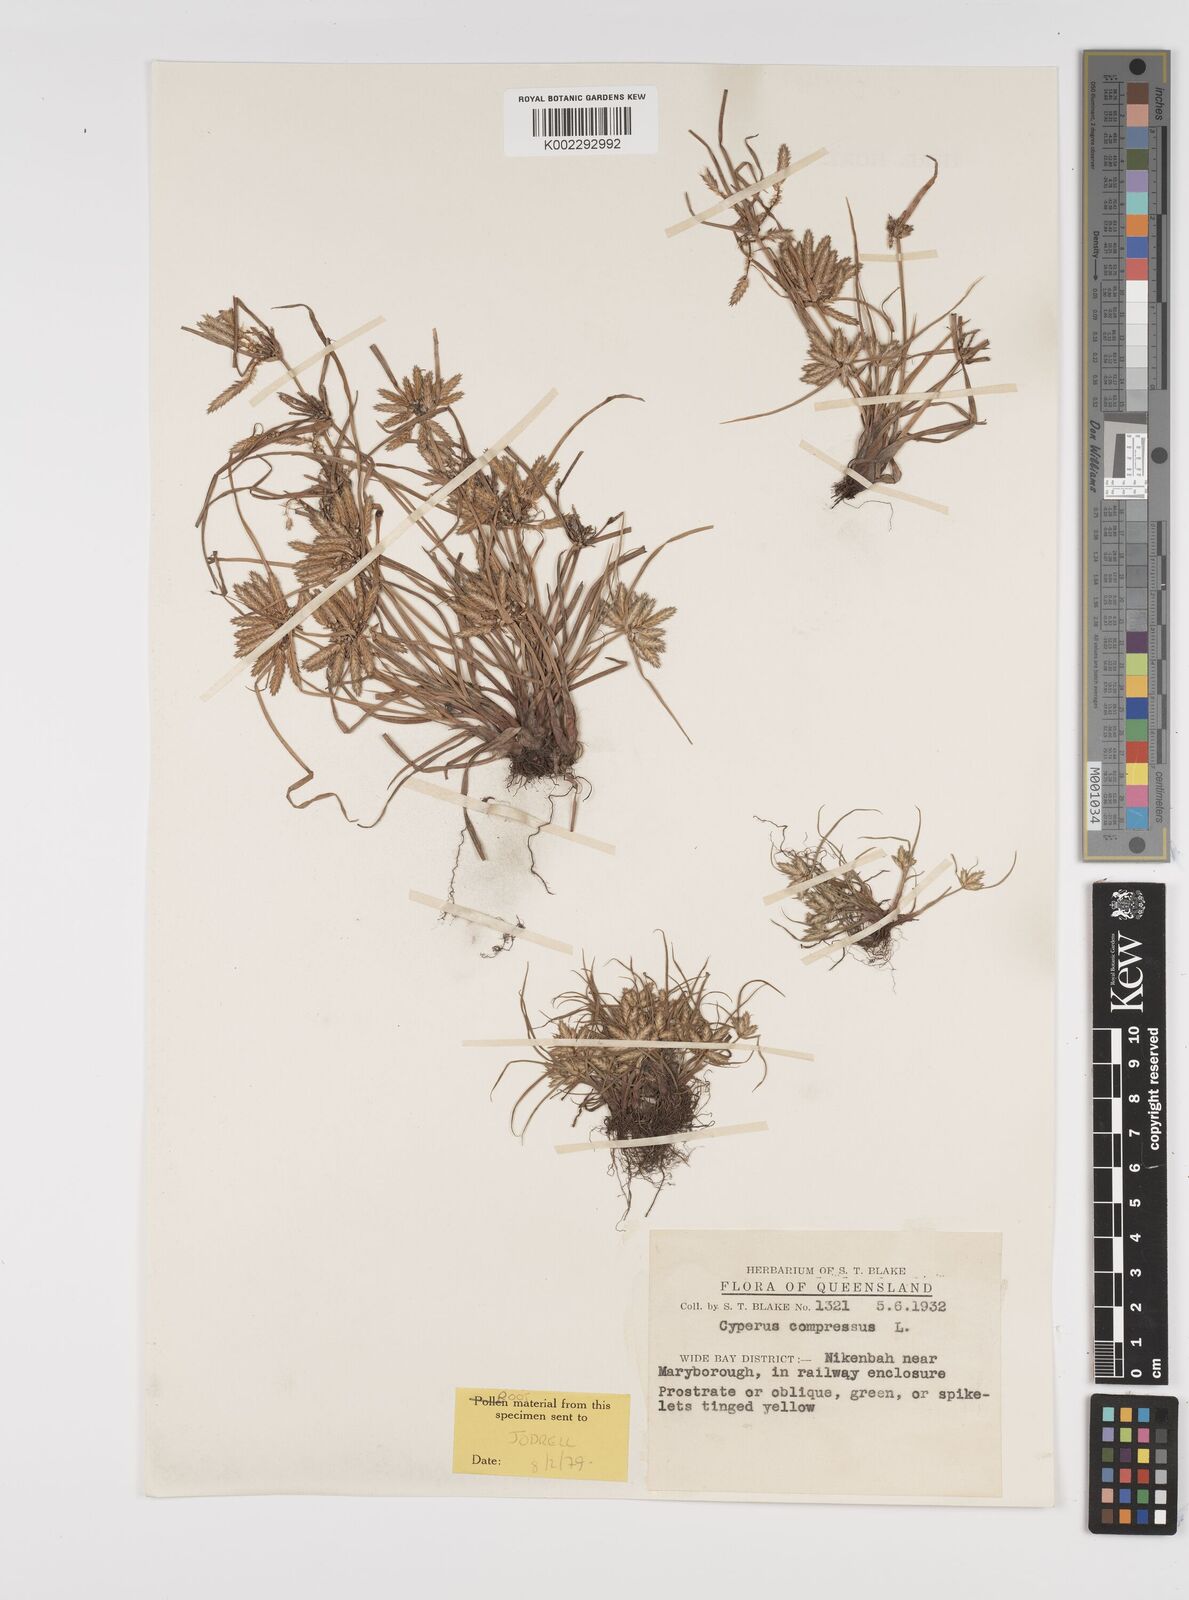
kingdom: Plantae
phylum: Tracheophyta
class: Liliopsida
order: Poales
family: Cyperaceae
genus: Cyperus
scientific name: Cyperus compressus
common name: Poorland flatsedge
